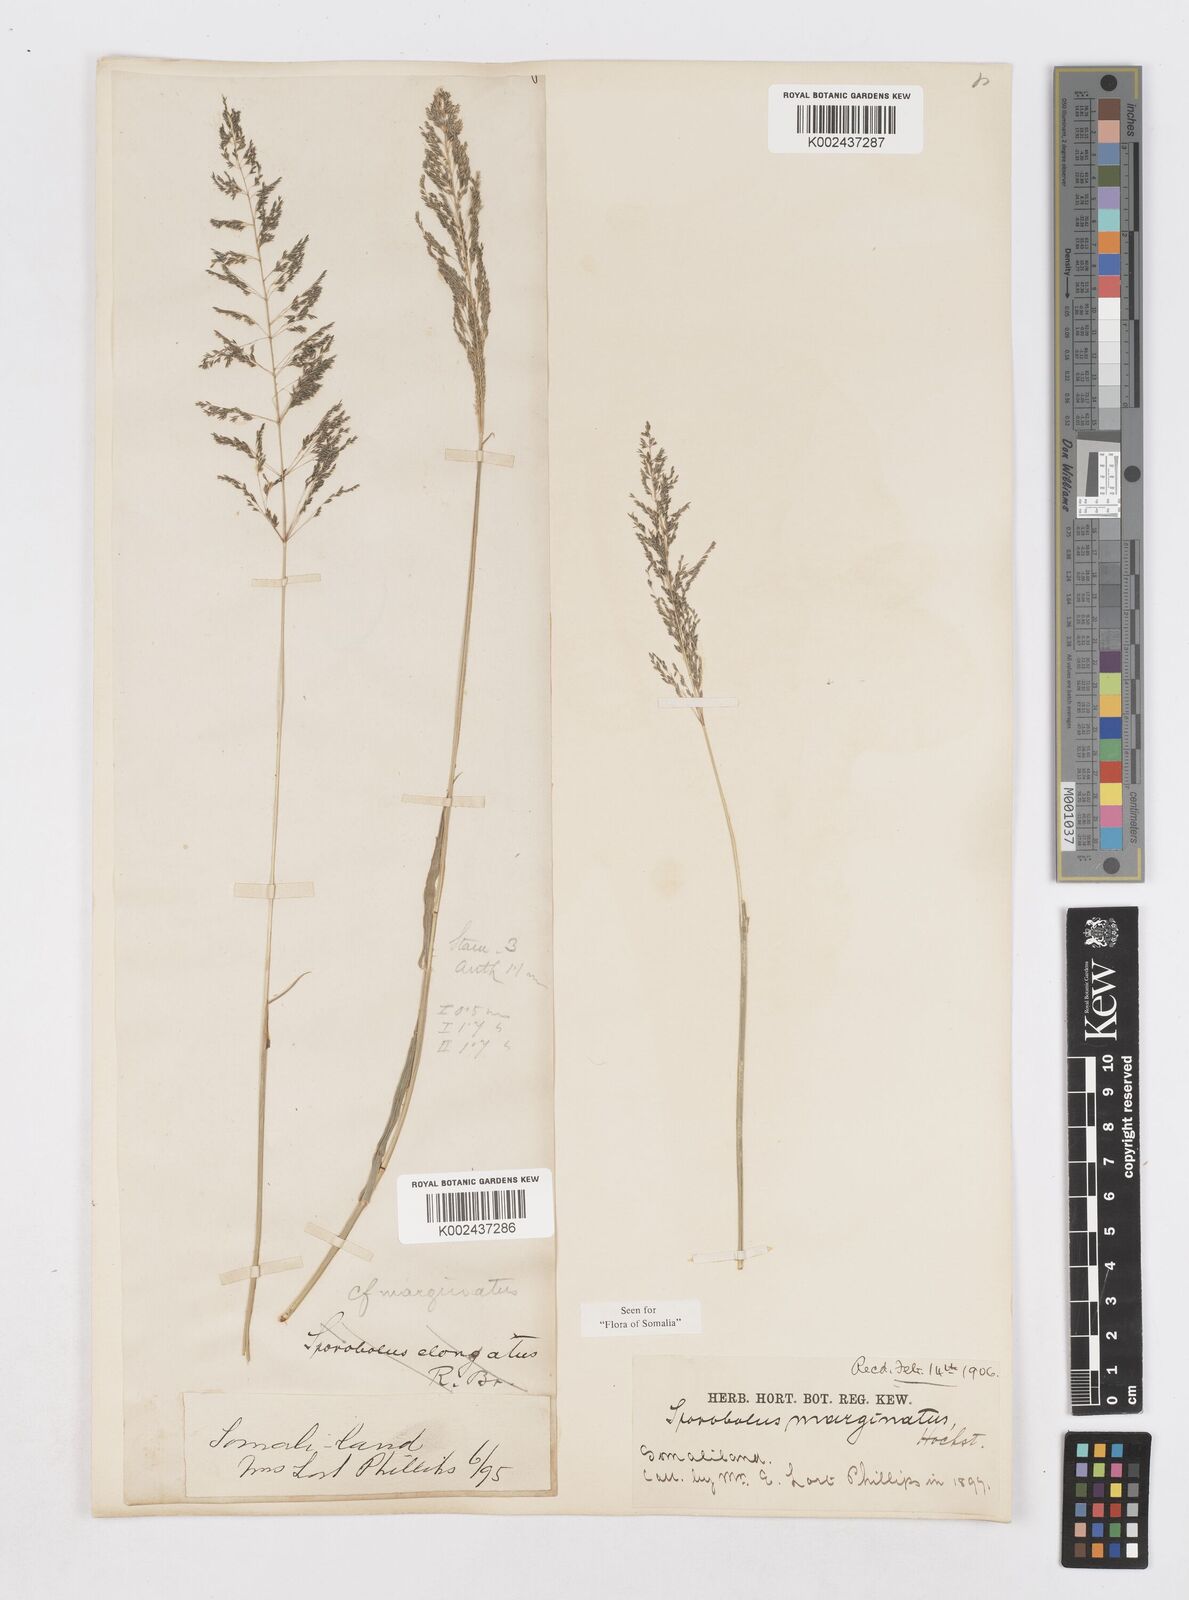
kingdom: Plantae
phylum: Tracheophyta
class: Liliopsida
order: Poales
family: Poaceae
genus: Sporobolus
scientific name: Sporobolus ioclados
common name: Pan dropseed
